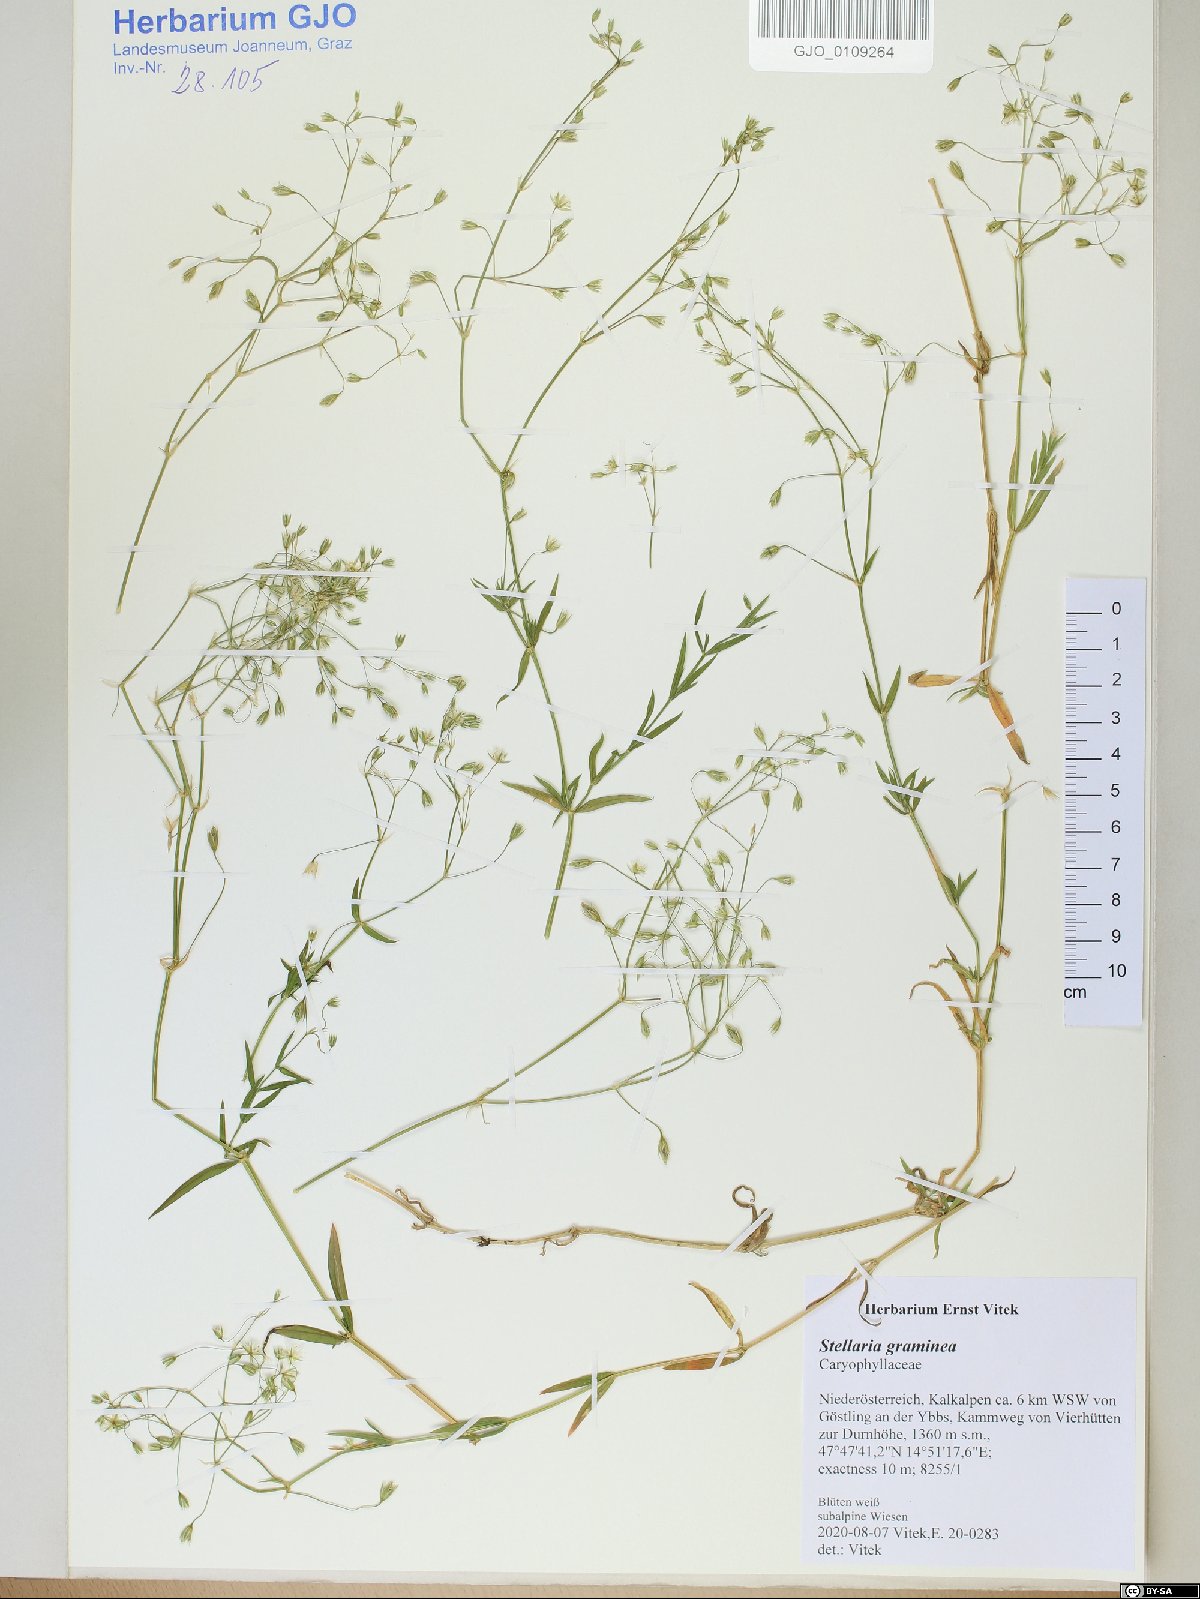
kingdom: Plantae
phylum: Tracheophyta
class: Magnoliopsida
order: Caryophyllales
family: Caryophyllaceae
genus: Stellaria
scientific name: Stellaria graminea
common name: Grass-like starwort
